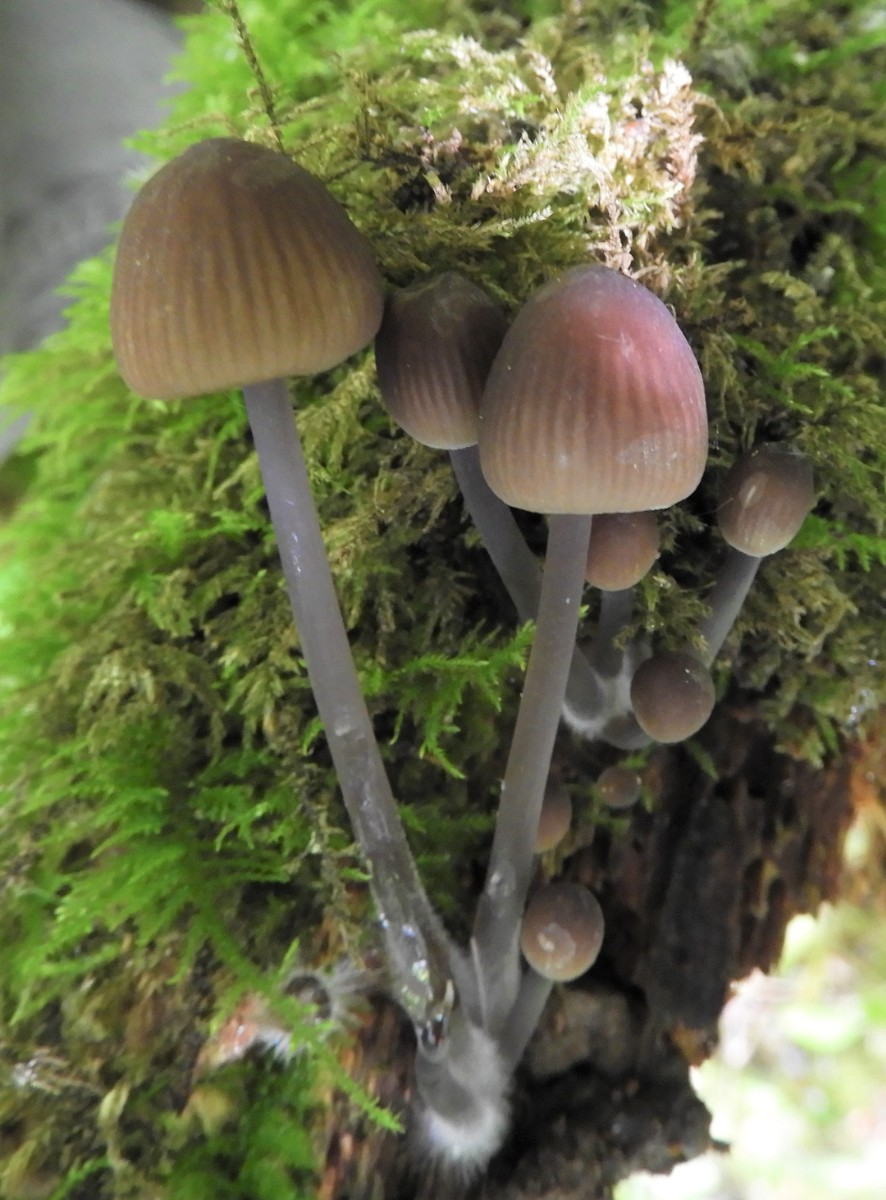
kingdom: Fungi
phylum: Basidiomycota
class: Agaricomycetes
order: Agaricales
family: Mycenaceae
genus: Mycena
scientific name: Mycena abramsii
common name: sommer-huesvamp
